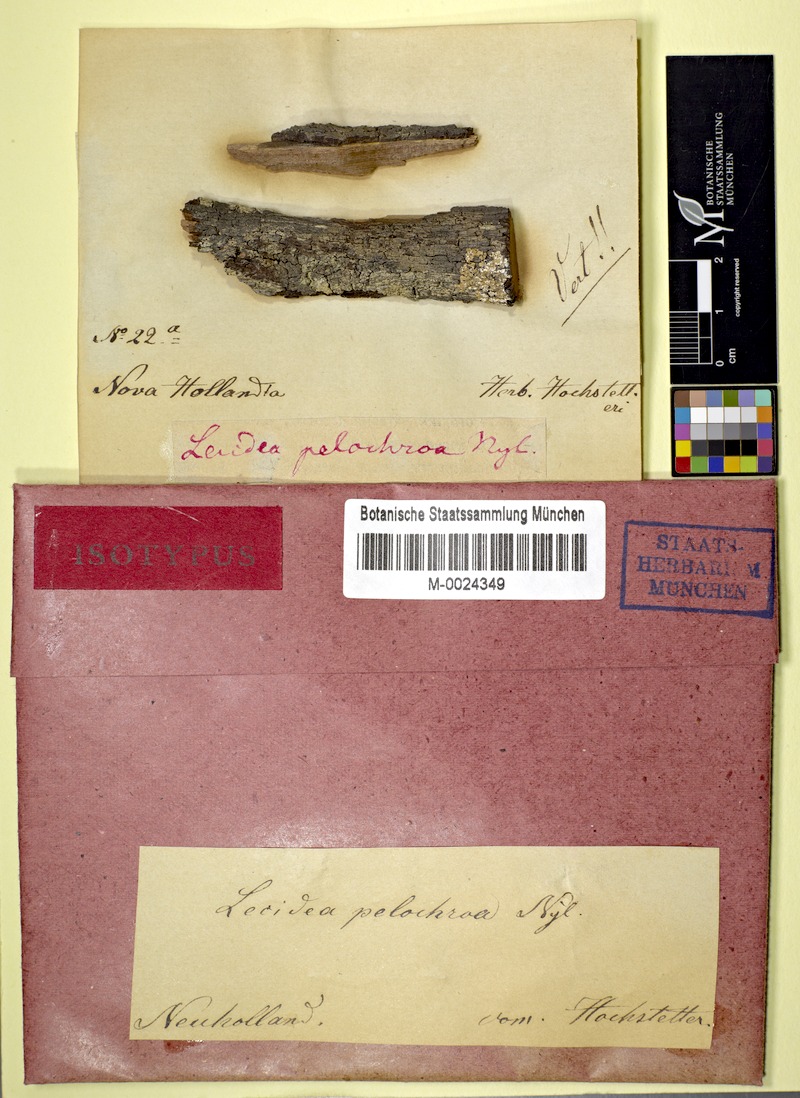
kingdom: Fungi
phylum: Ascomycota
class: Lecanoromycetes
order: Lecideales
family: Lecideaceae
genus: Lecidea
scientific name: Lecidea pelochroa
